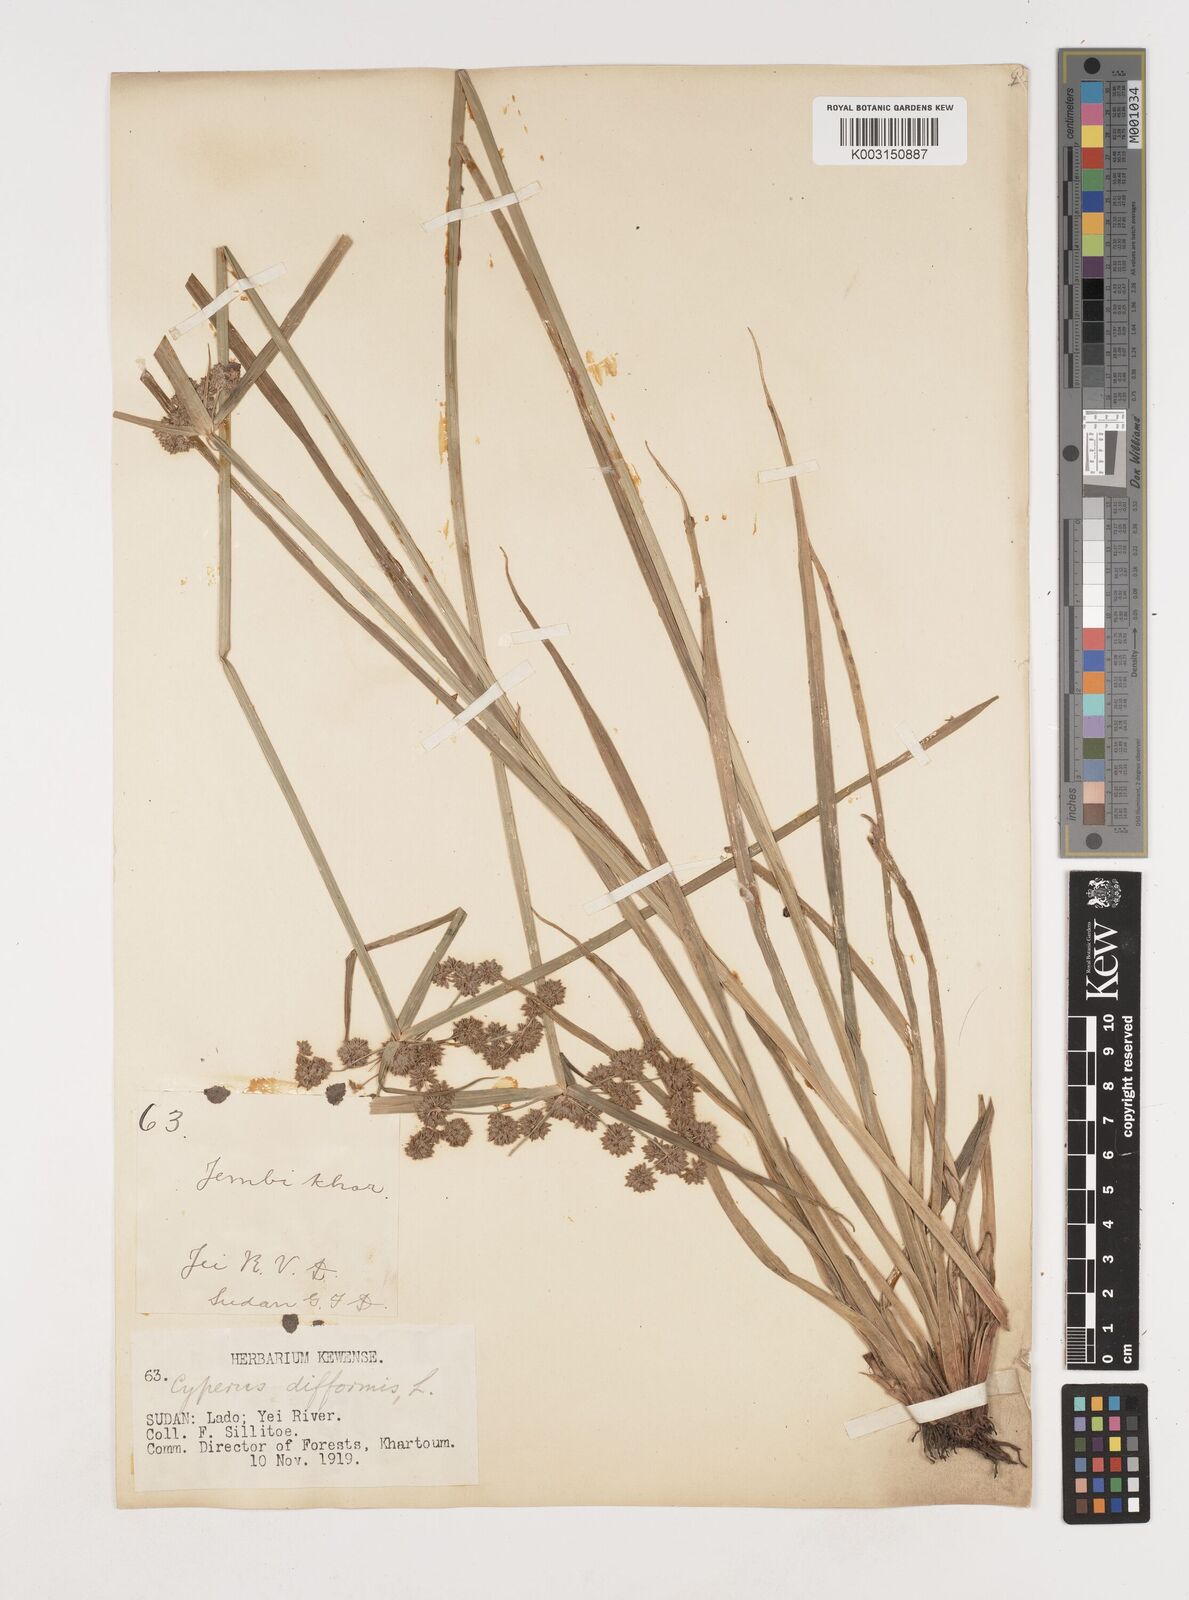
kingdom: Plantae
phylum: Tracheophyta
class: Liliopsida
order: Poales
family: Cyperaceae
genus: Cyperus
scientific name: Cyperus difformis
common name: Variable flatsedge
